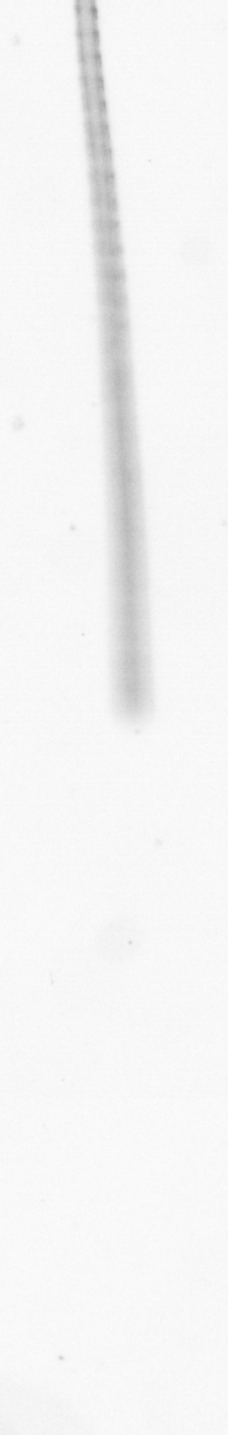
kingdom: Chromista
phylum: Ochrophyta
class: Bacillariophyceae
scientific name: Bacillariophyceae
